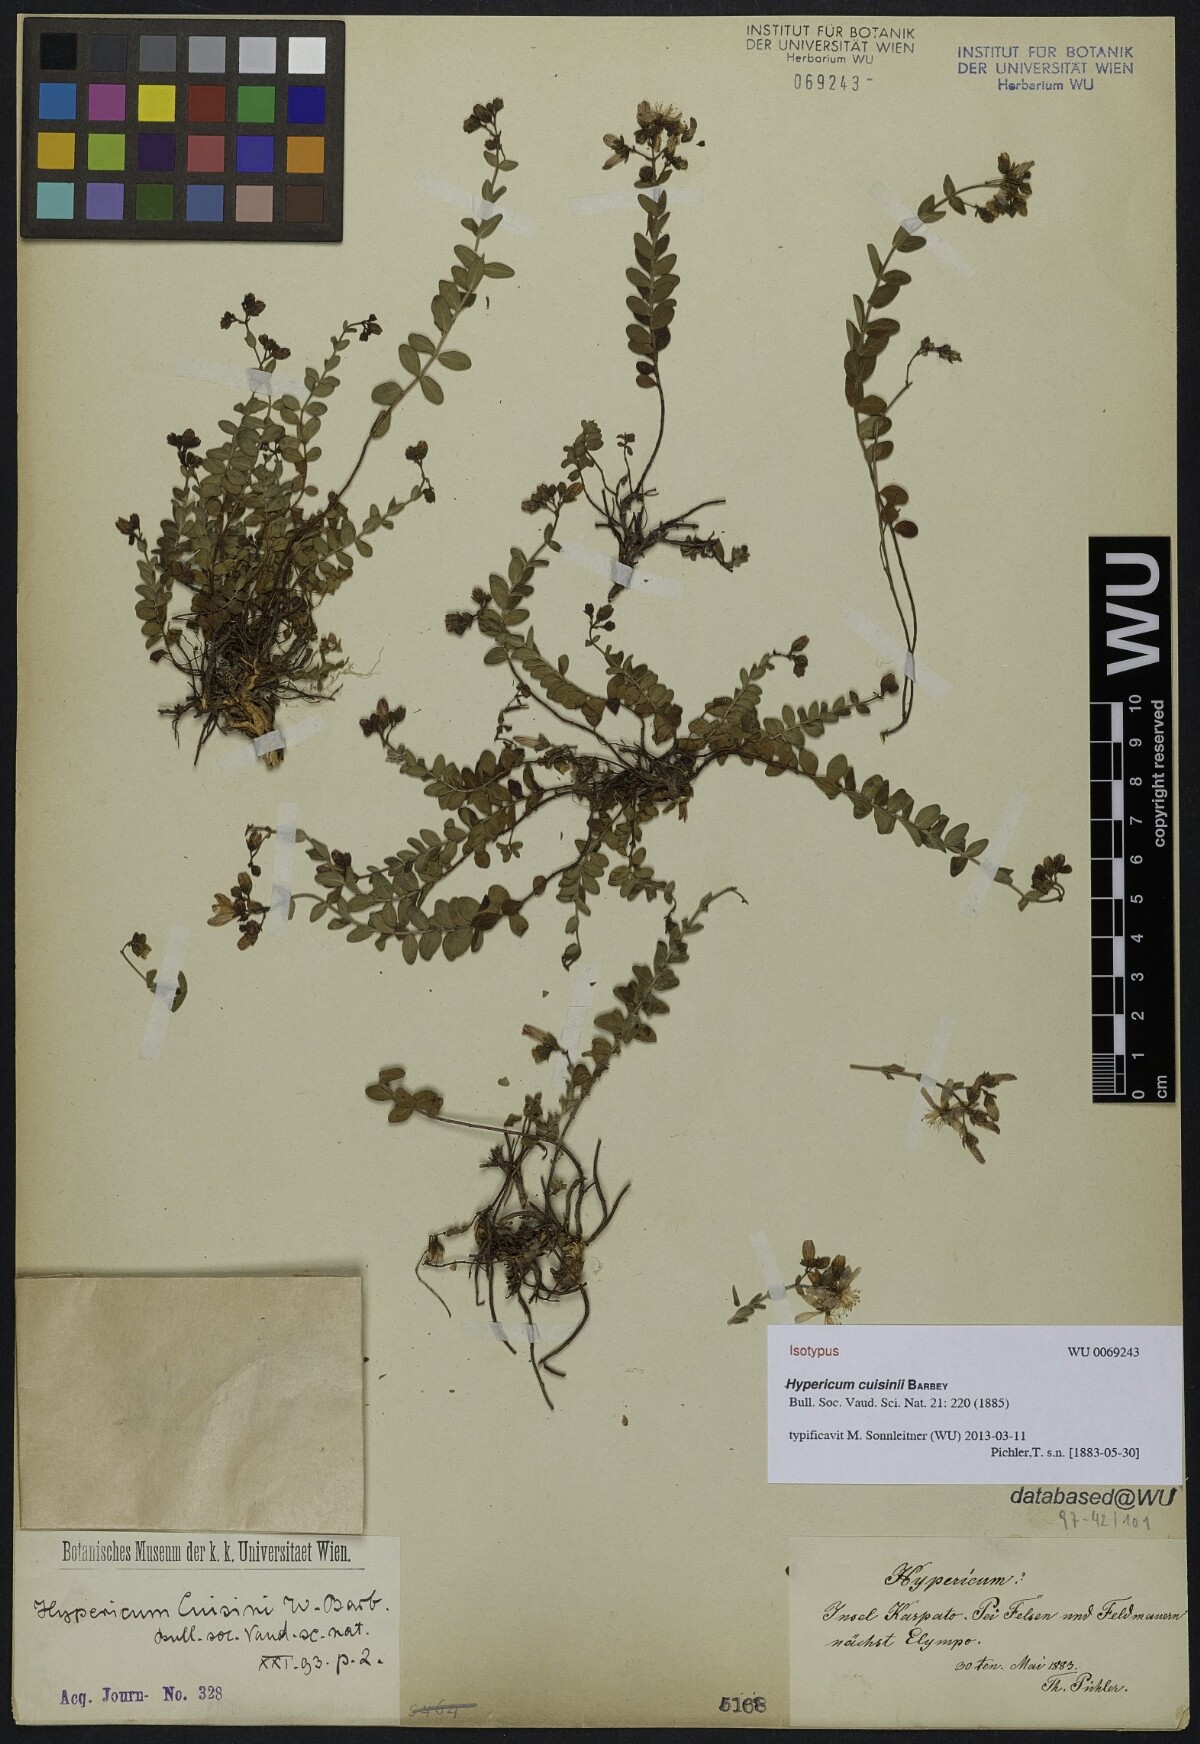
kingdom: Plantae
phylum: Tracheophyta
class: Magnoliopsida
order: Malpighiales
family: Hypericaceae
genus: Hypericum
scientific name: Hypericum cuisinii
